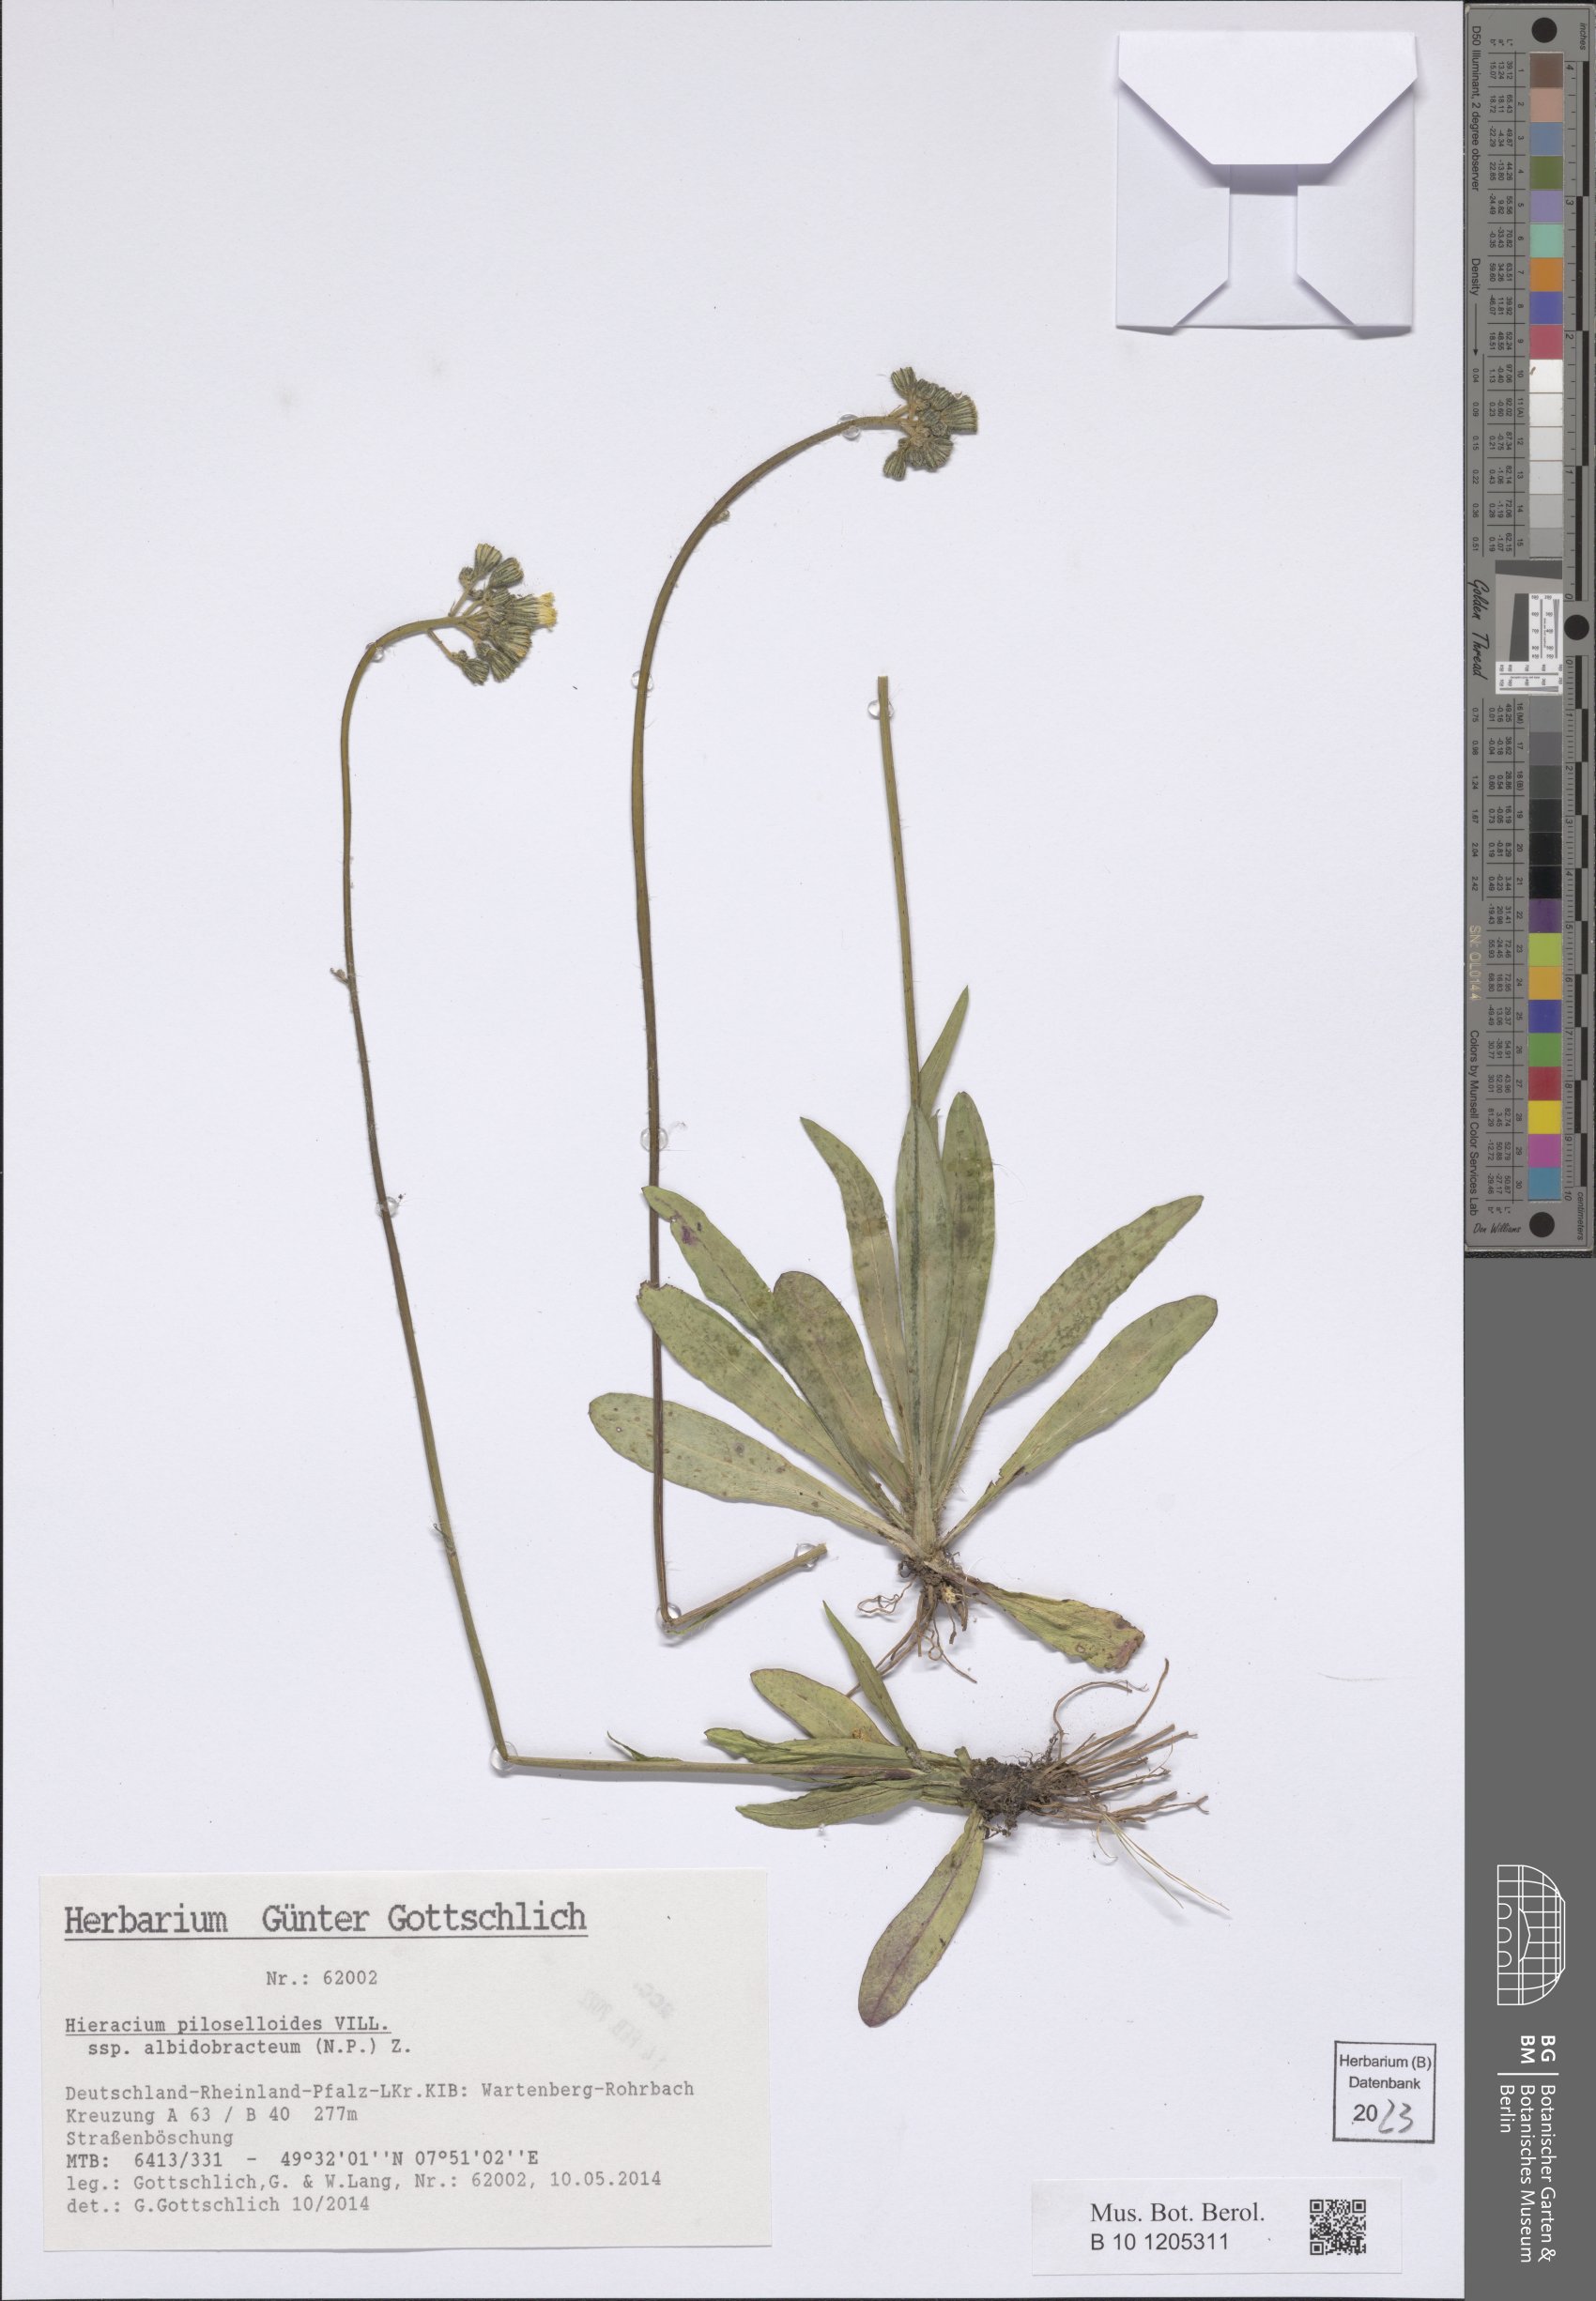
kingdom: Plantae
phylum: Tracheophyta
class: Magnoliopsida
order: Asterales
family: Asteraceae
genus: Pilosella
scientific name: Pilosella piloselloides
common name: Glaucous king-devil
